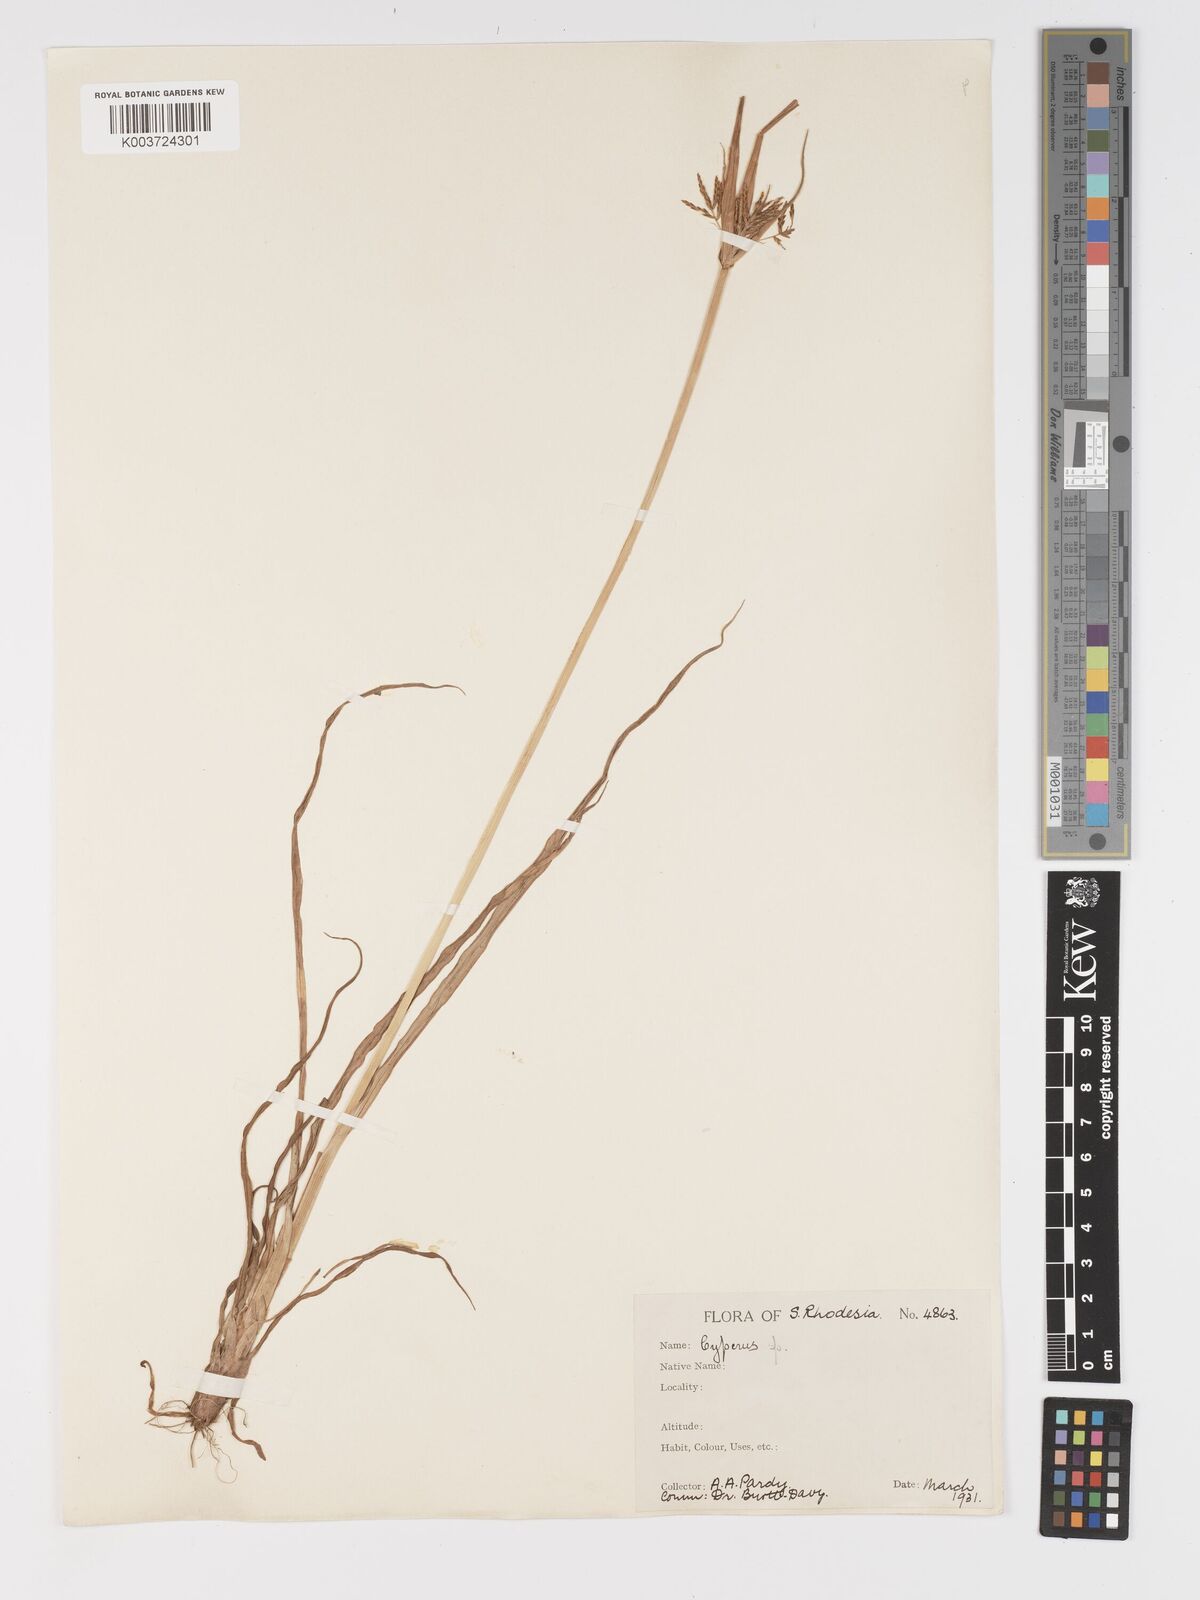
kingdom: Plantae
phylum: Tracheophyta
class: Liliopsida
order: Poales
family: Cyperaceae
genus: Cyperus
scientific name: Cyperus
